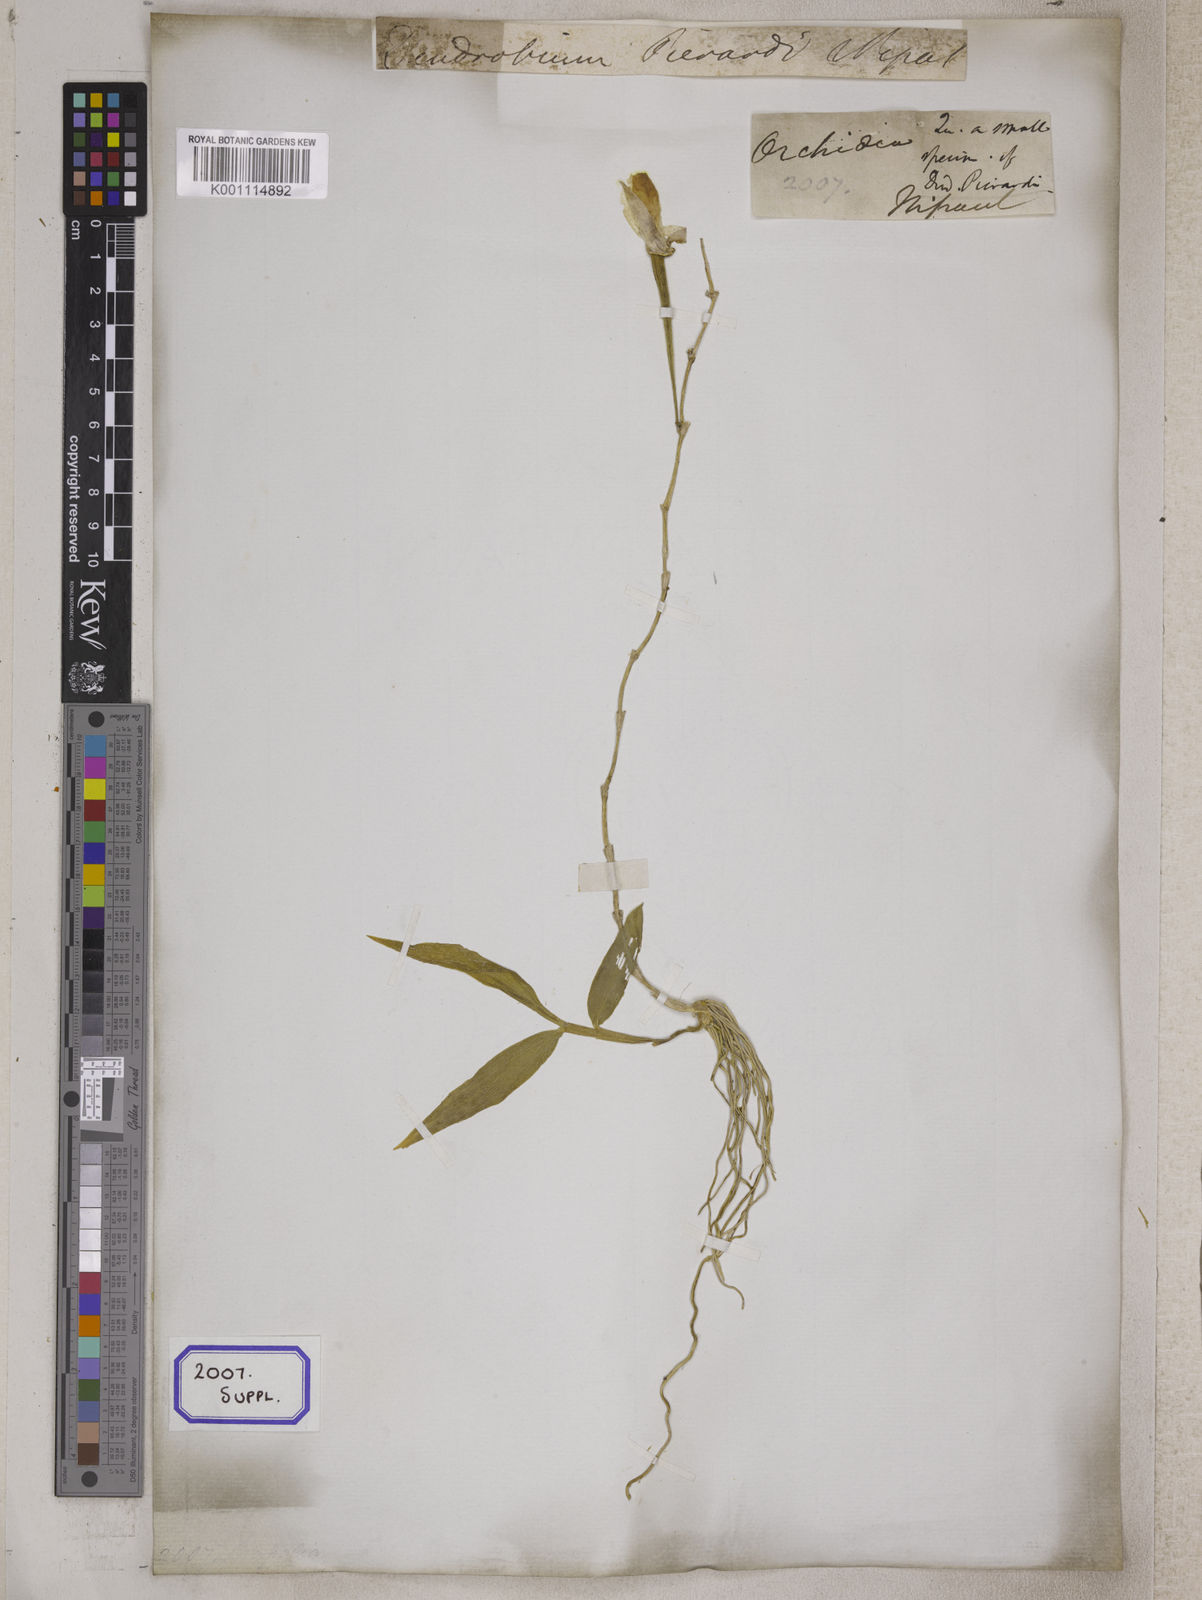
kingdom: Plantae
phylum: Tracheophyta
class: Liliopsida
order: Asparagales
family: Orchidaceae
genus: Dendrobium
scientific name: Dendrobium
